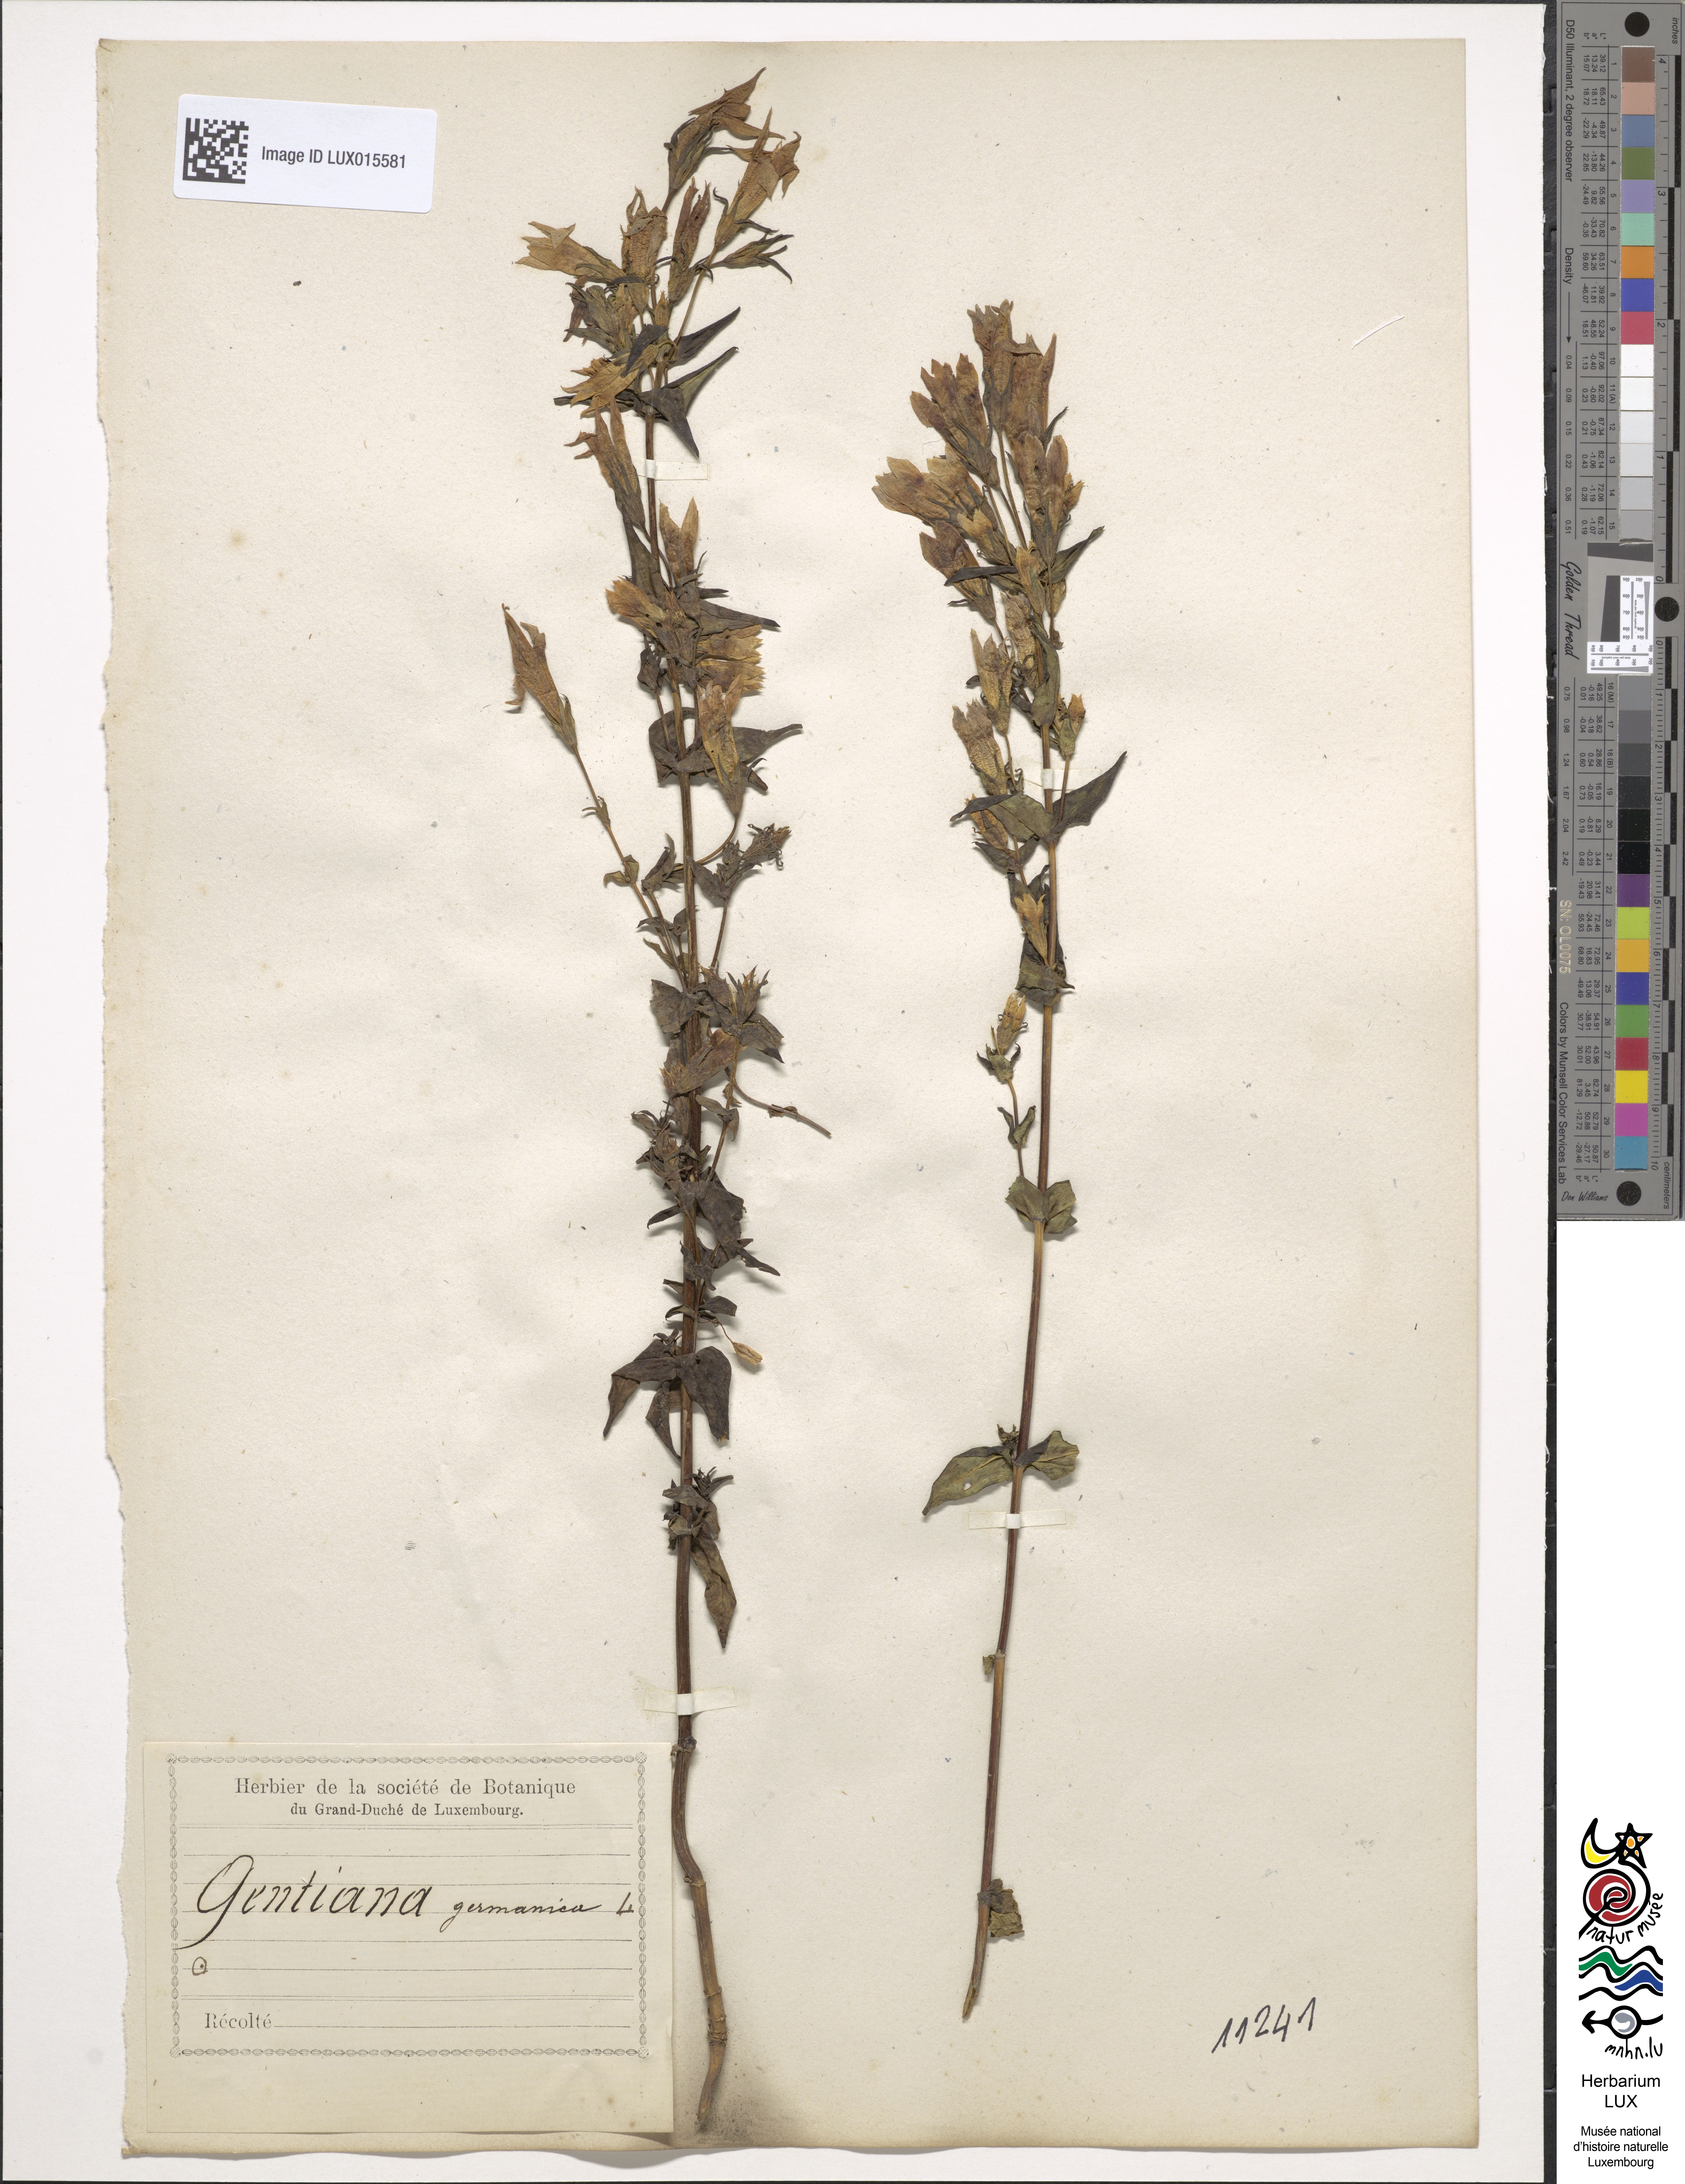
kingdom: Plantae
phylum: Tracheophyta
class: Magnoliopsida
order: Gentianales
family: Gentianaceae
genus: Gentianella
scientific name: Gentianella germanica
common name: Chiltern-gentian
